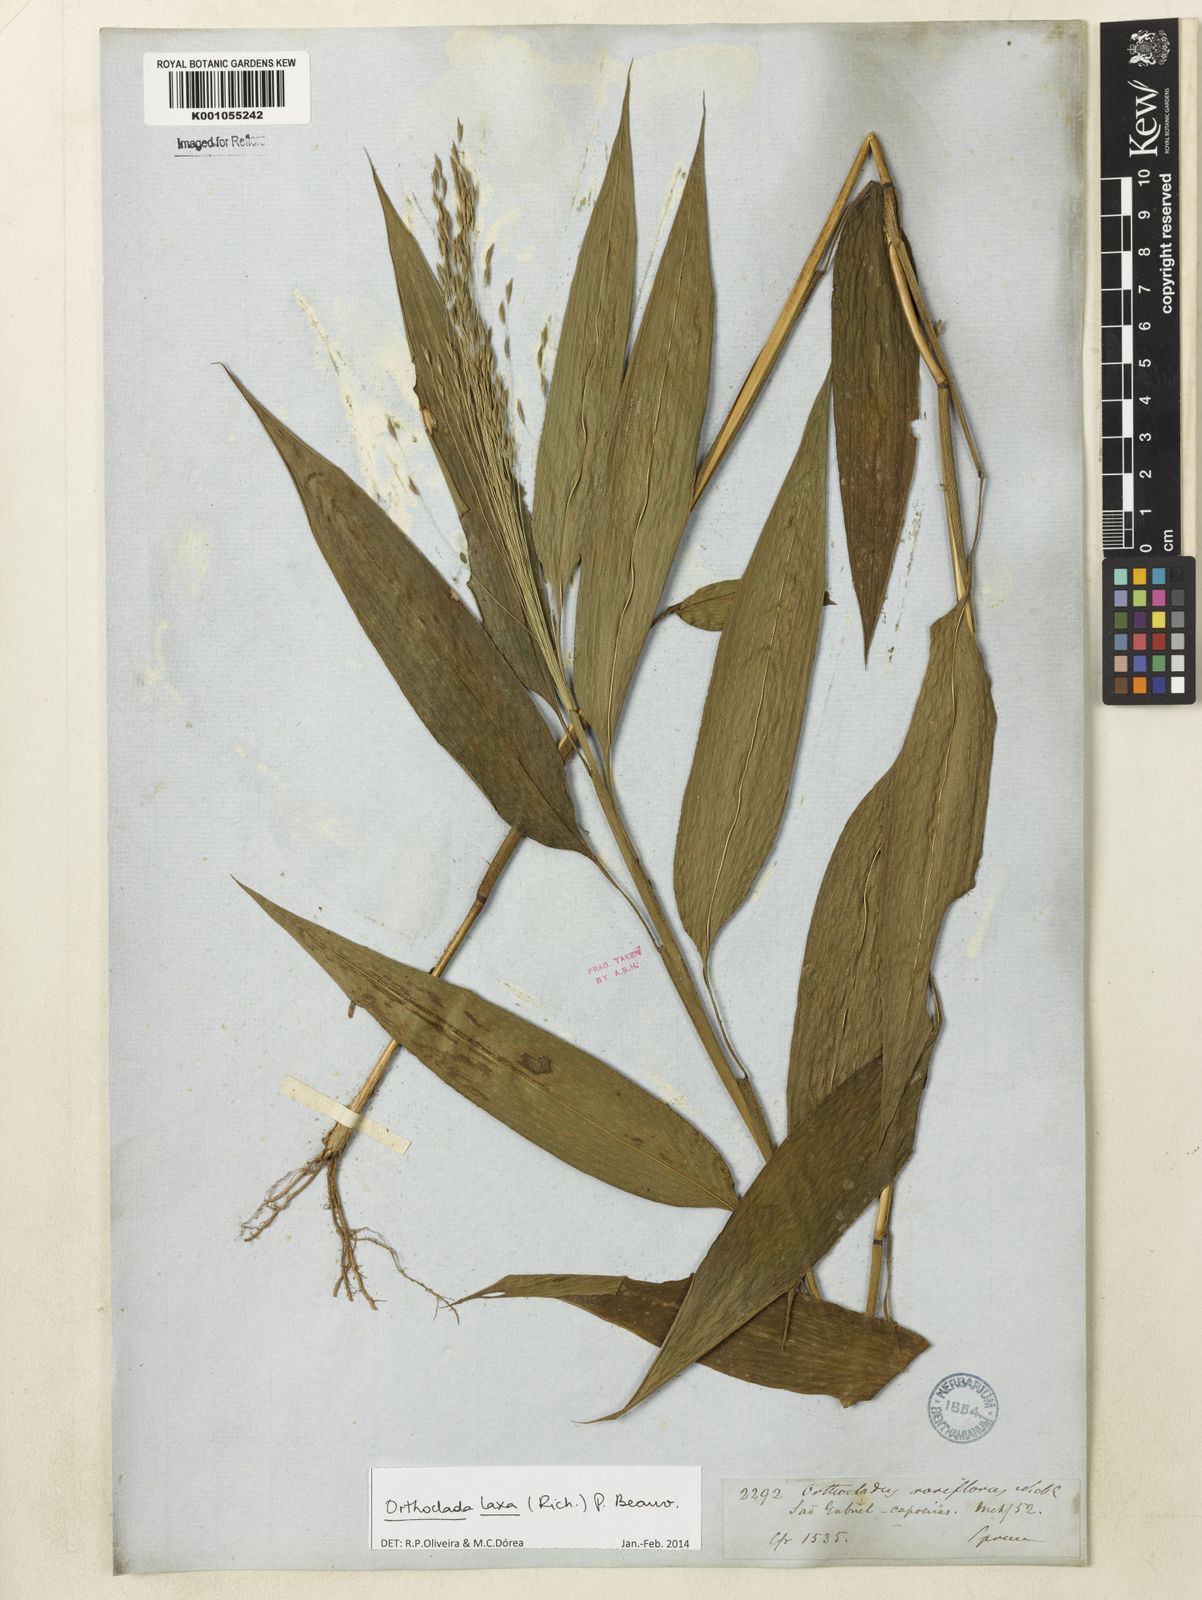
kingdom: Plantae
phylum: Tracheophyta
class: Liliopsida
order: Poales
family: Poaceae
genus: Orthoclada
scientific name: Orthoclada laxa
